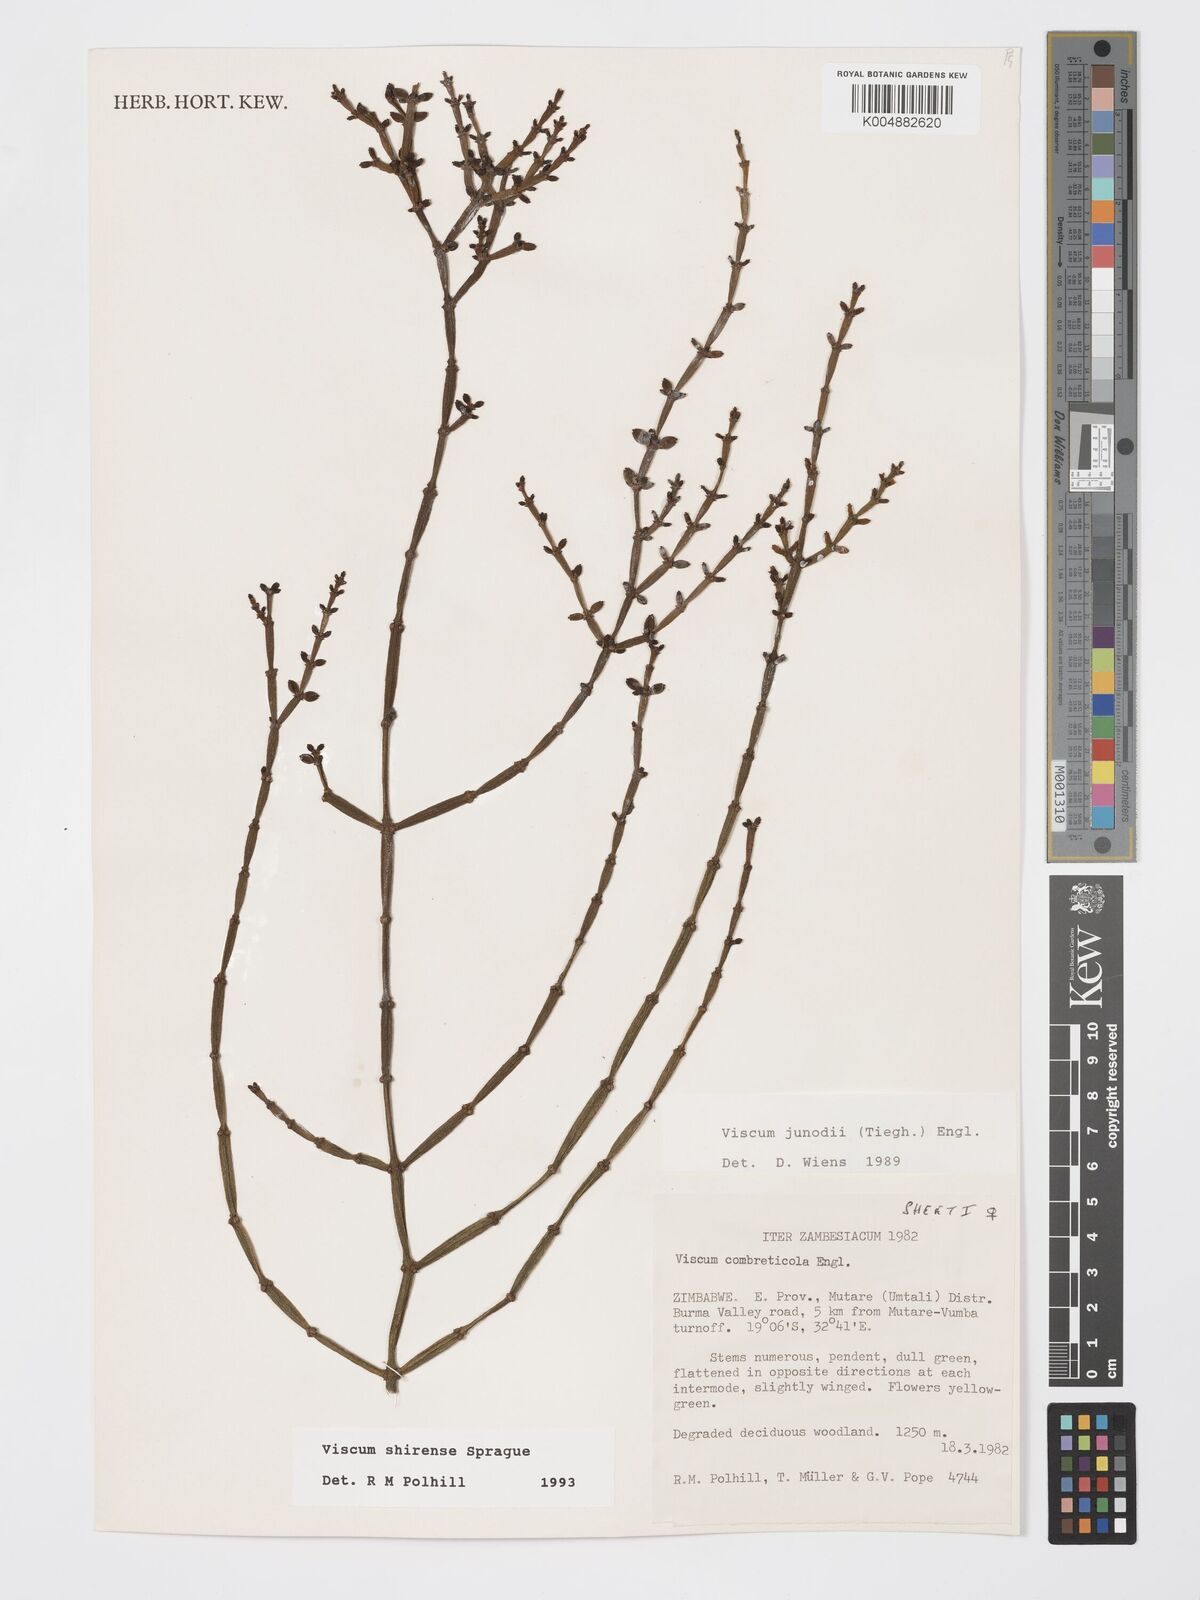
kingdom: Plantae
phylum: Tracheophyta
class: Magnoliopsida
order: Santalales
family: Viscaceae
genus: Viscum
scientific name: Viscum junodii
